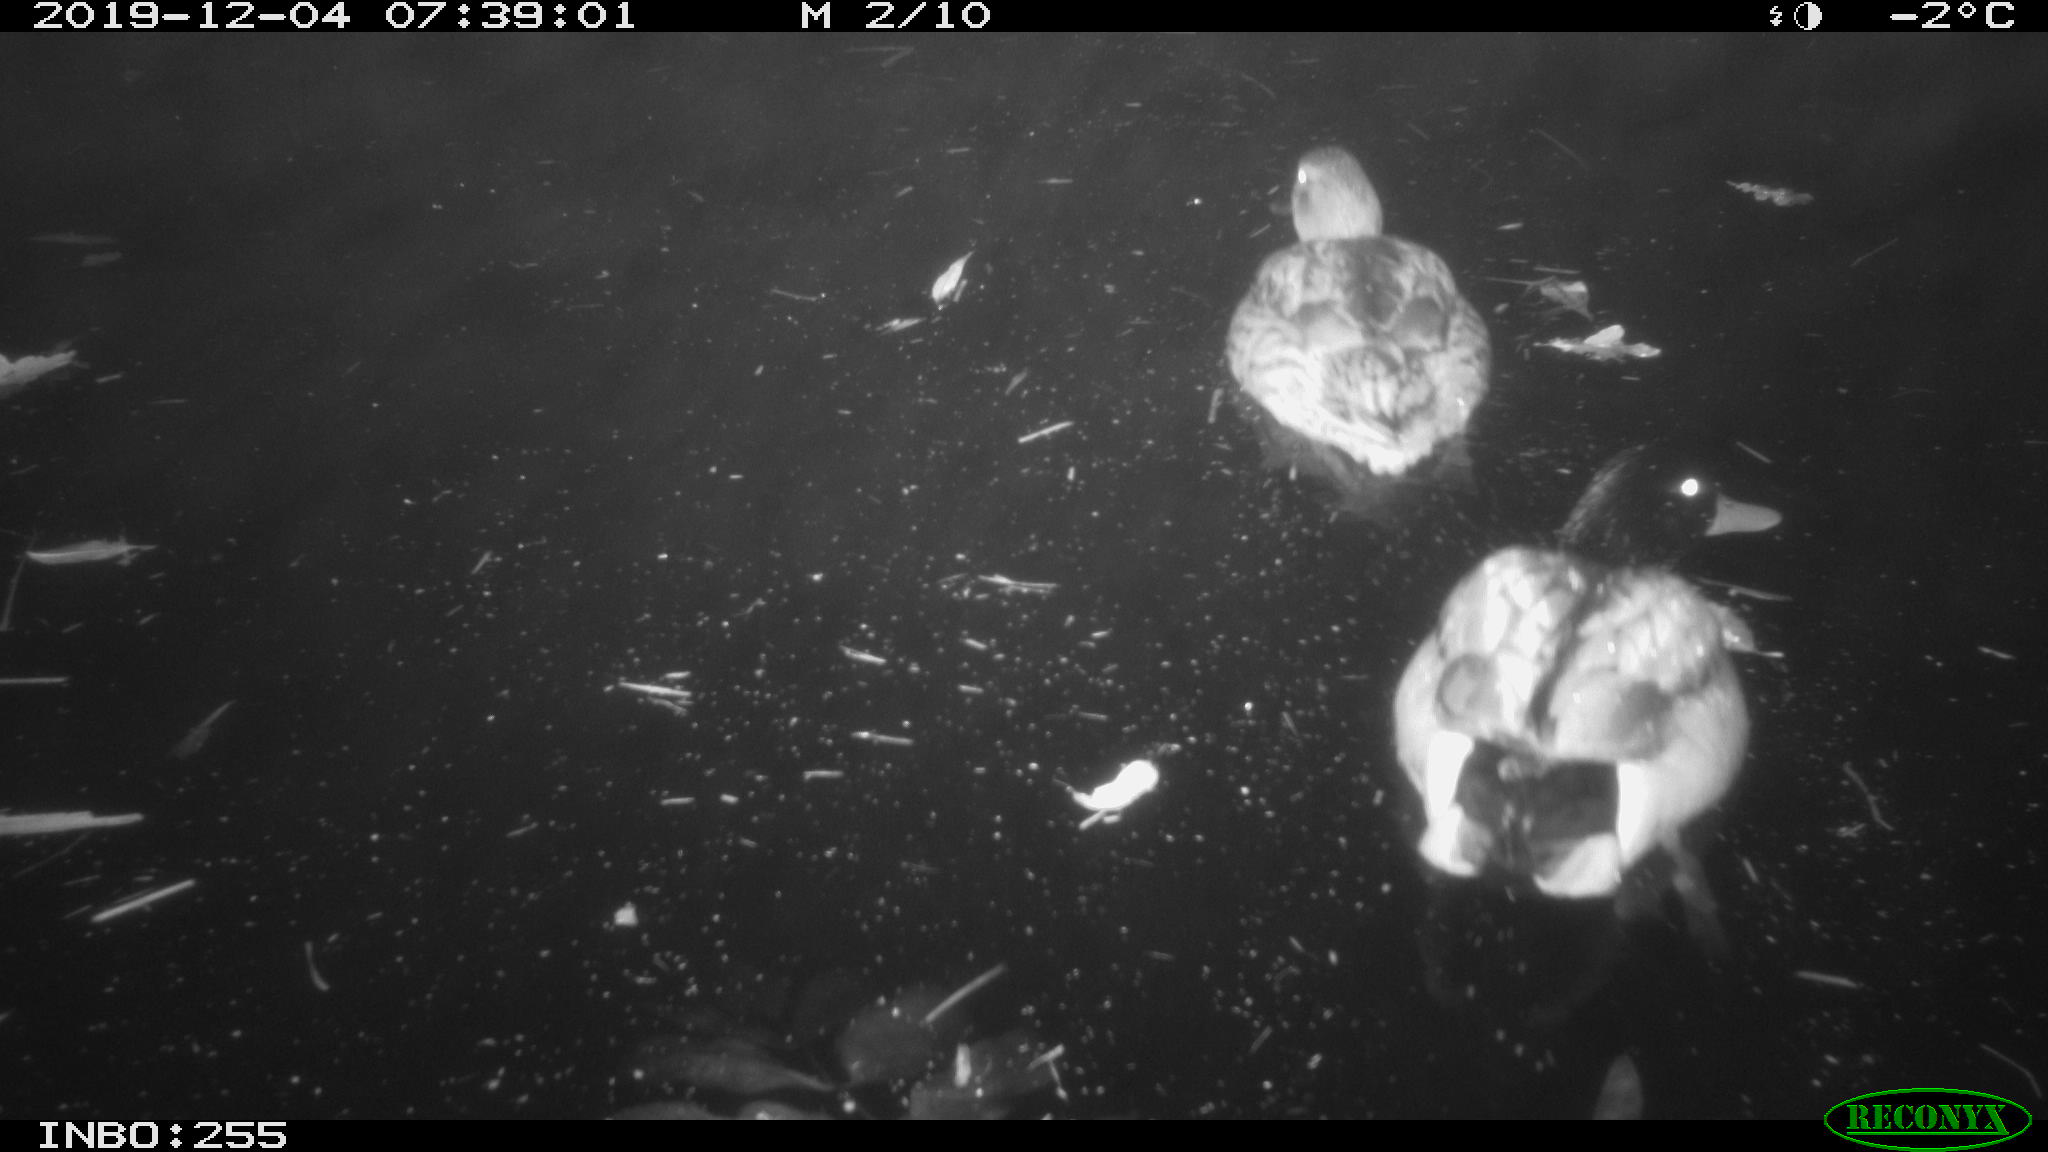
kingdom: Animalia
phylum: Chordata
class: Aves
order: Anseriformes
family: Anatidae
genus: Anas
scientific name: Anas platyrhynchos
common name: Mallard
